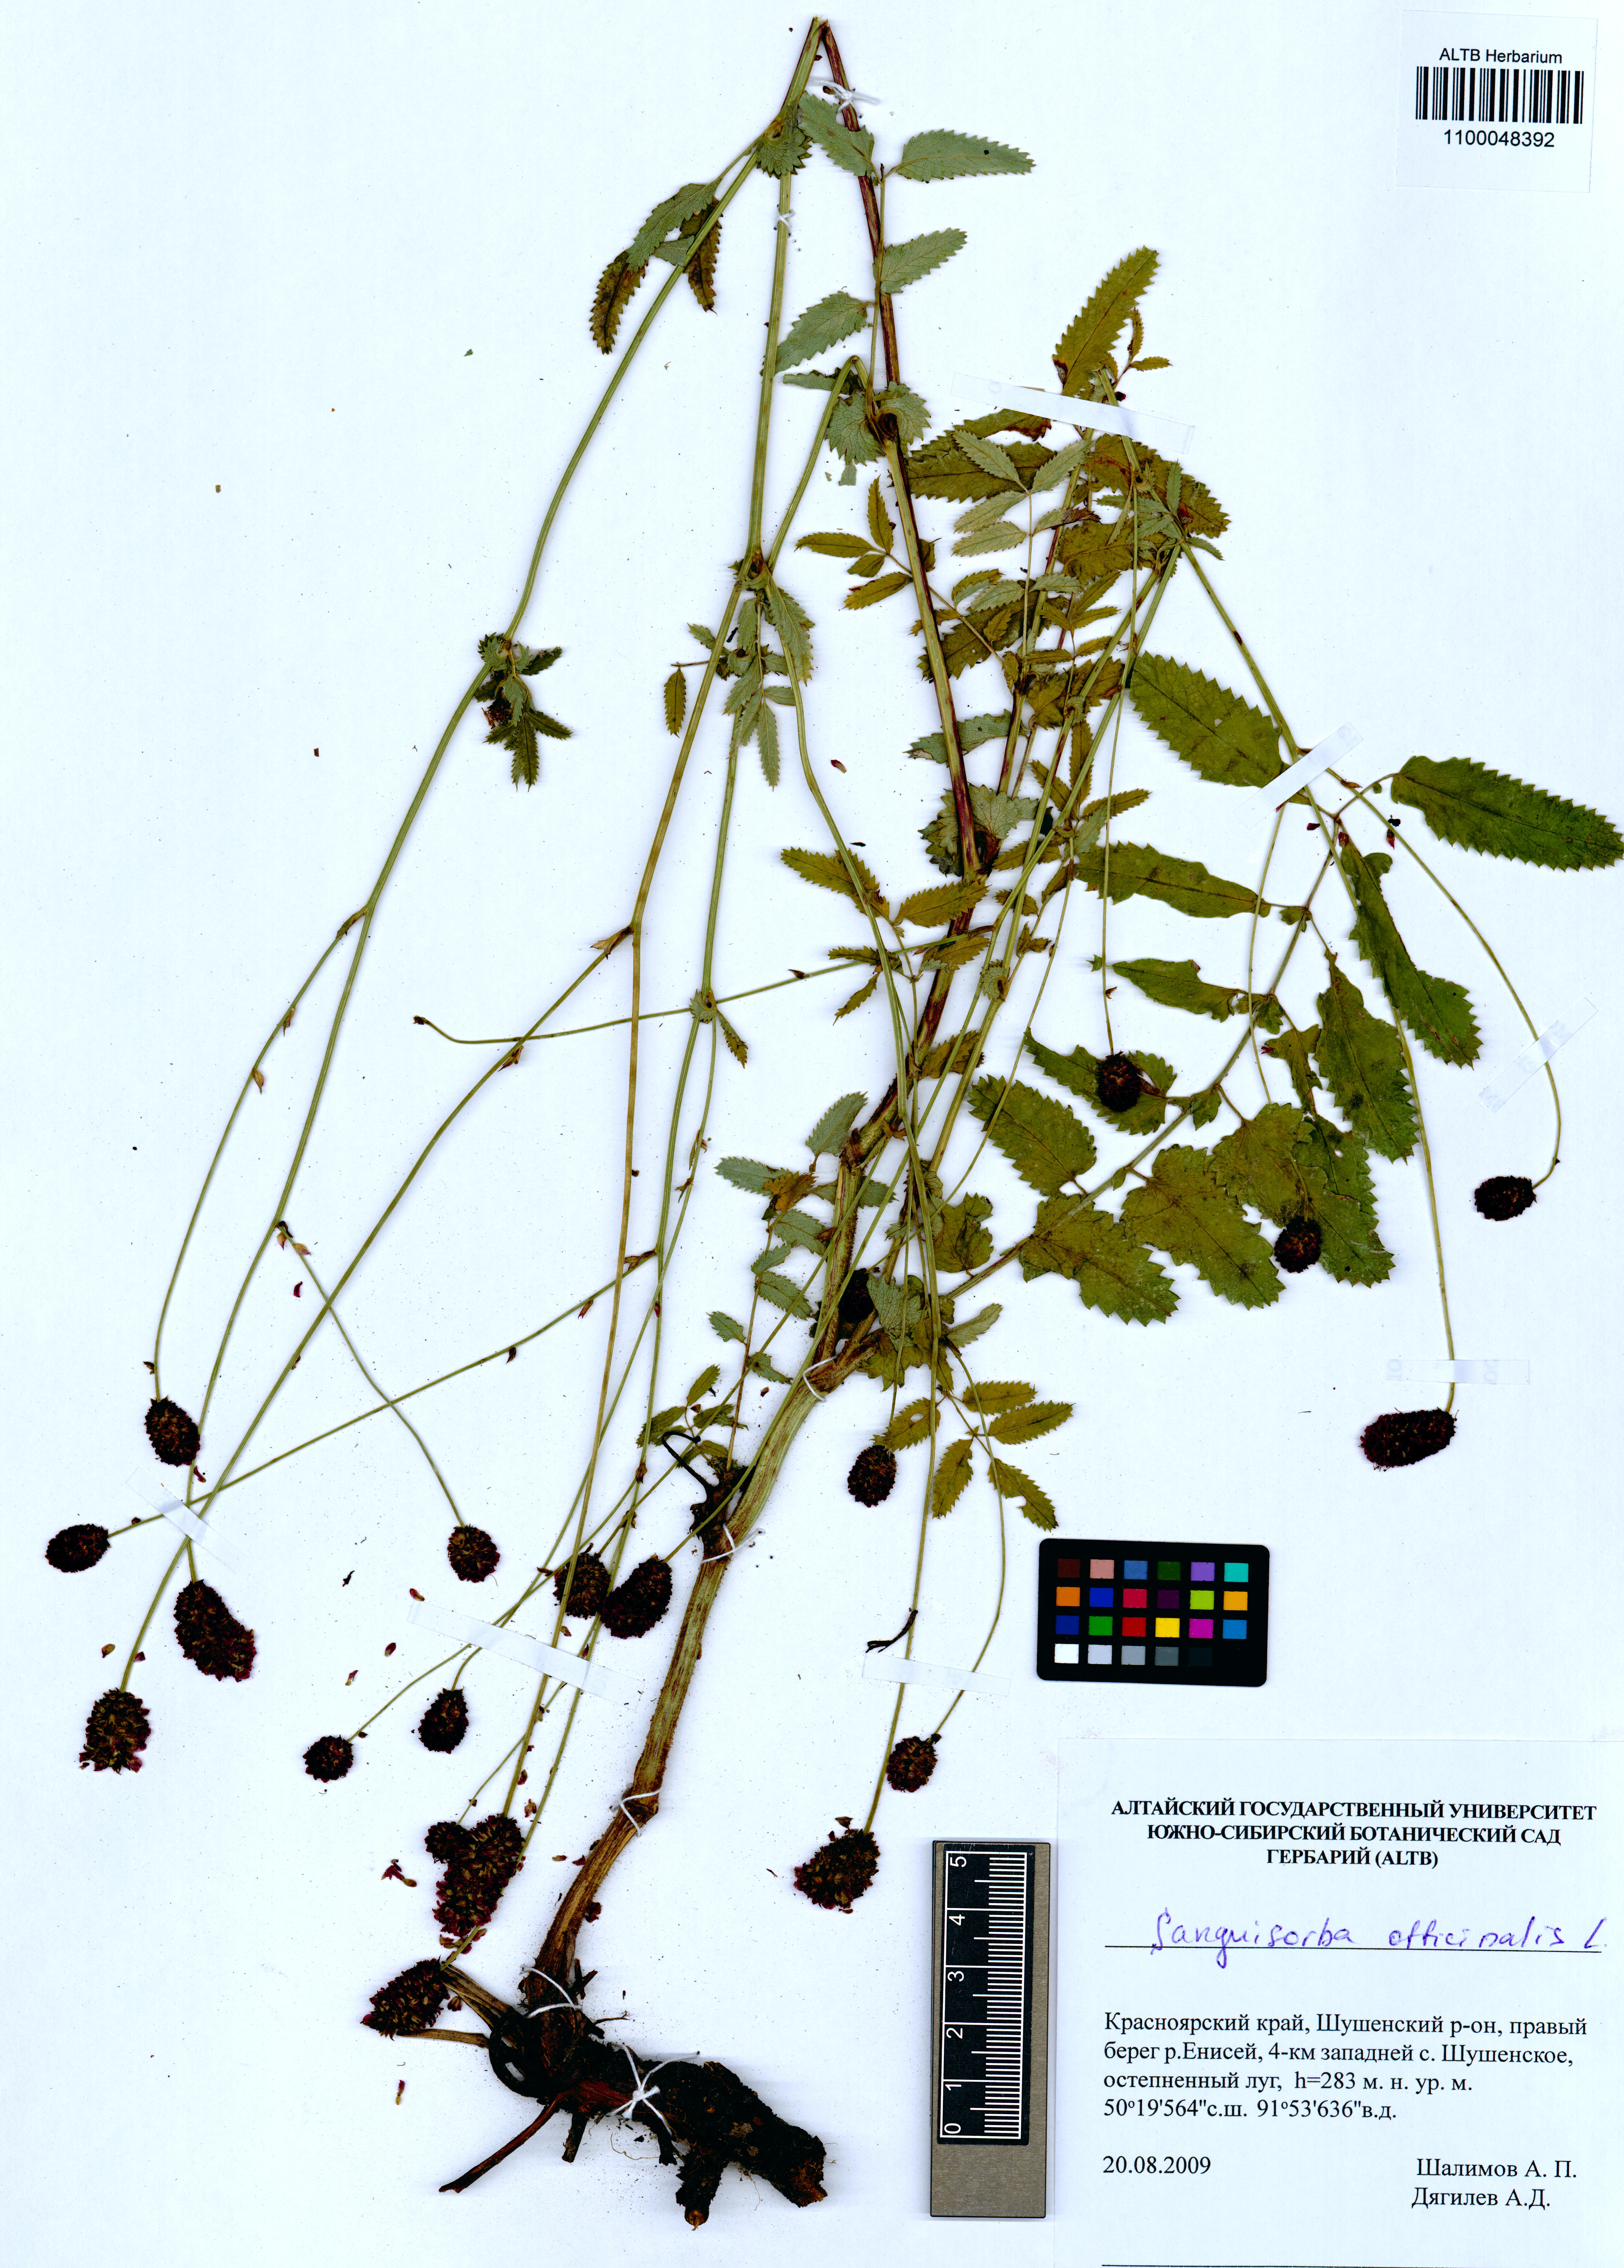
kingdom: Plantae
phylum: Tracheophyta
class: Magnoliopsida
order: Rosales
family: Rosaceae
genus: Sanguisorba
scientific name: Sanguisorba officinalis
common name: Great burnet
